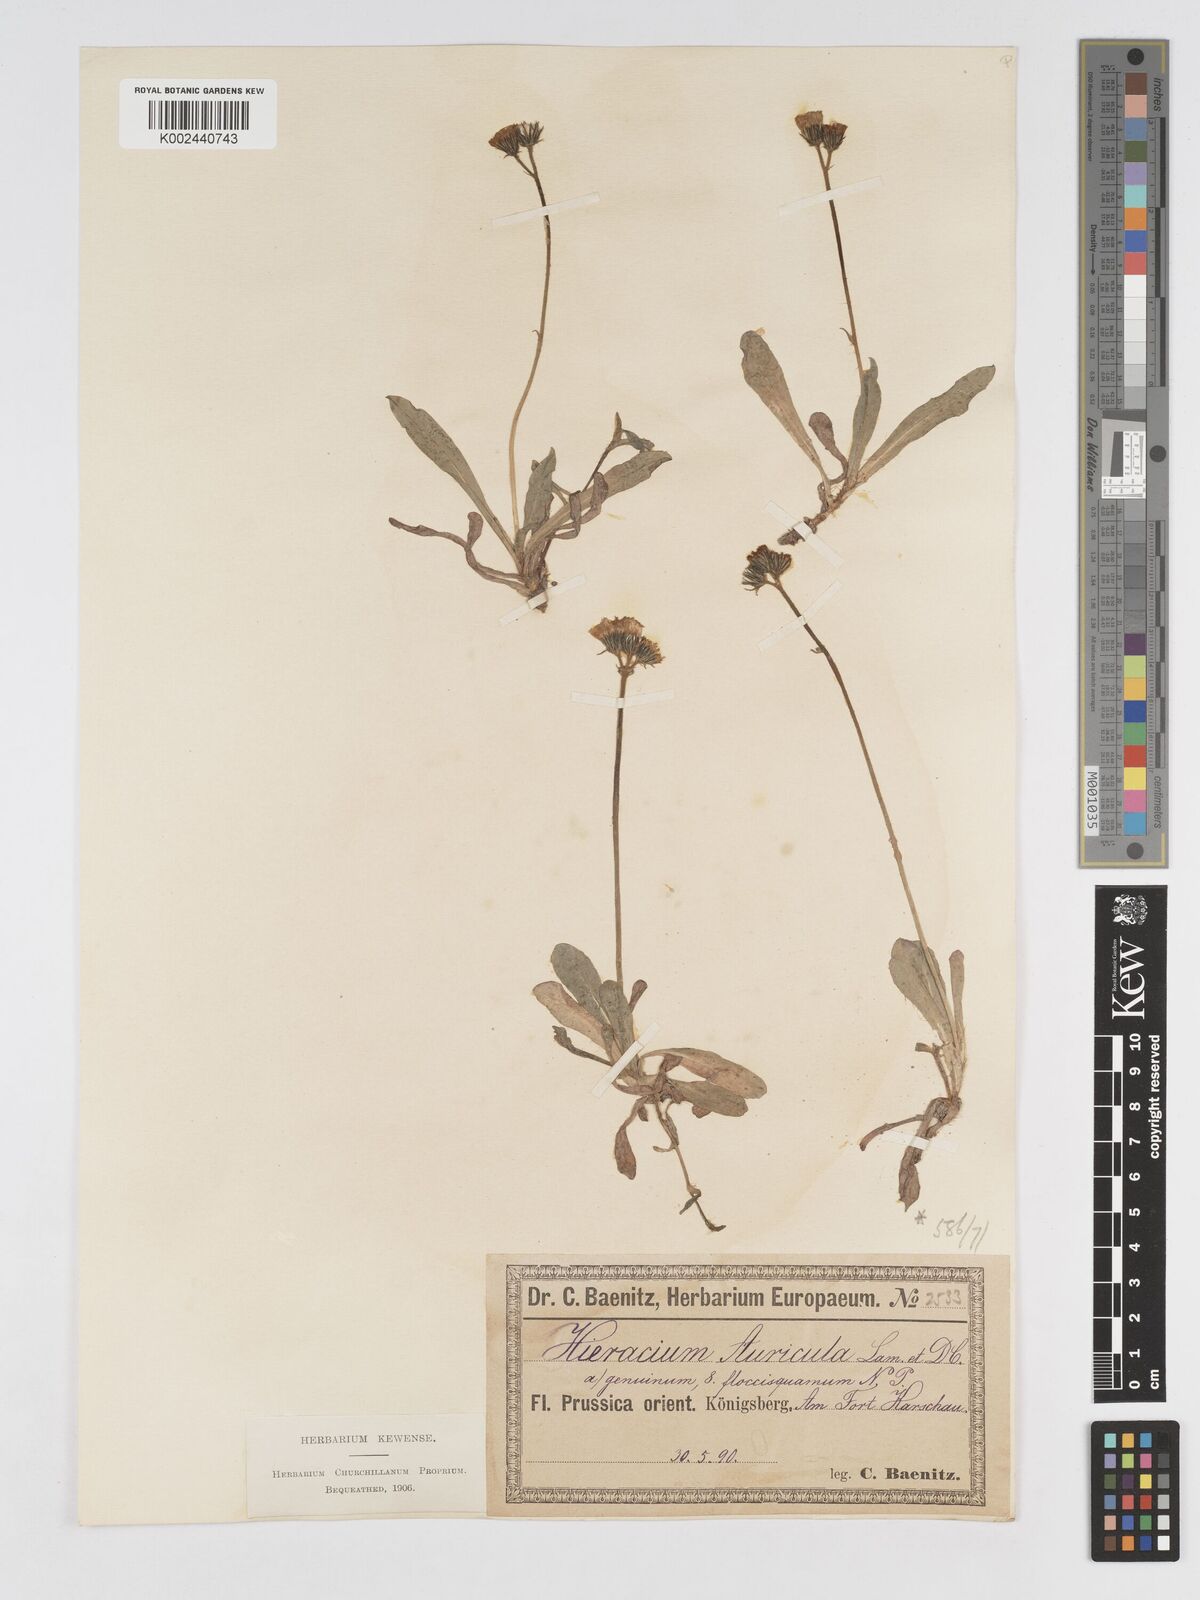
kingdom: Plantae
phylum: Tracheophyta
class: Magnoliopsida
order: Asterales
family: Asteraceae
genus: Pilosella
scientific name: Pilosella floribunda
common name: Glaucous hawkweed
